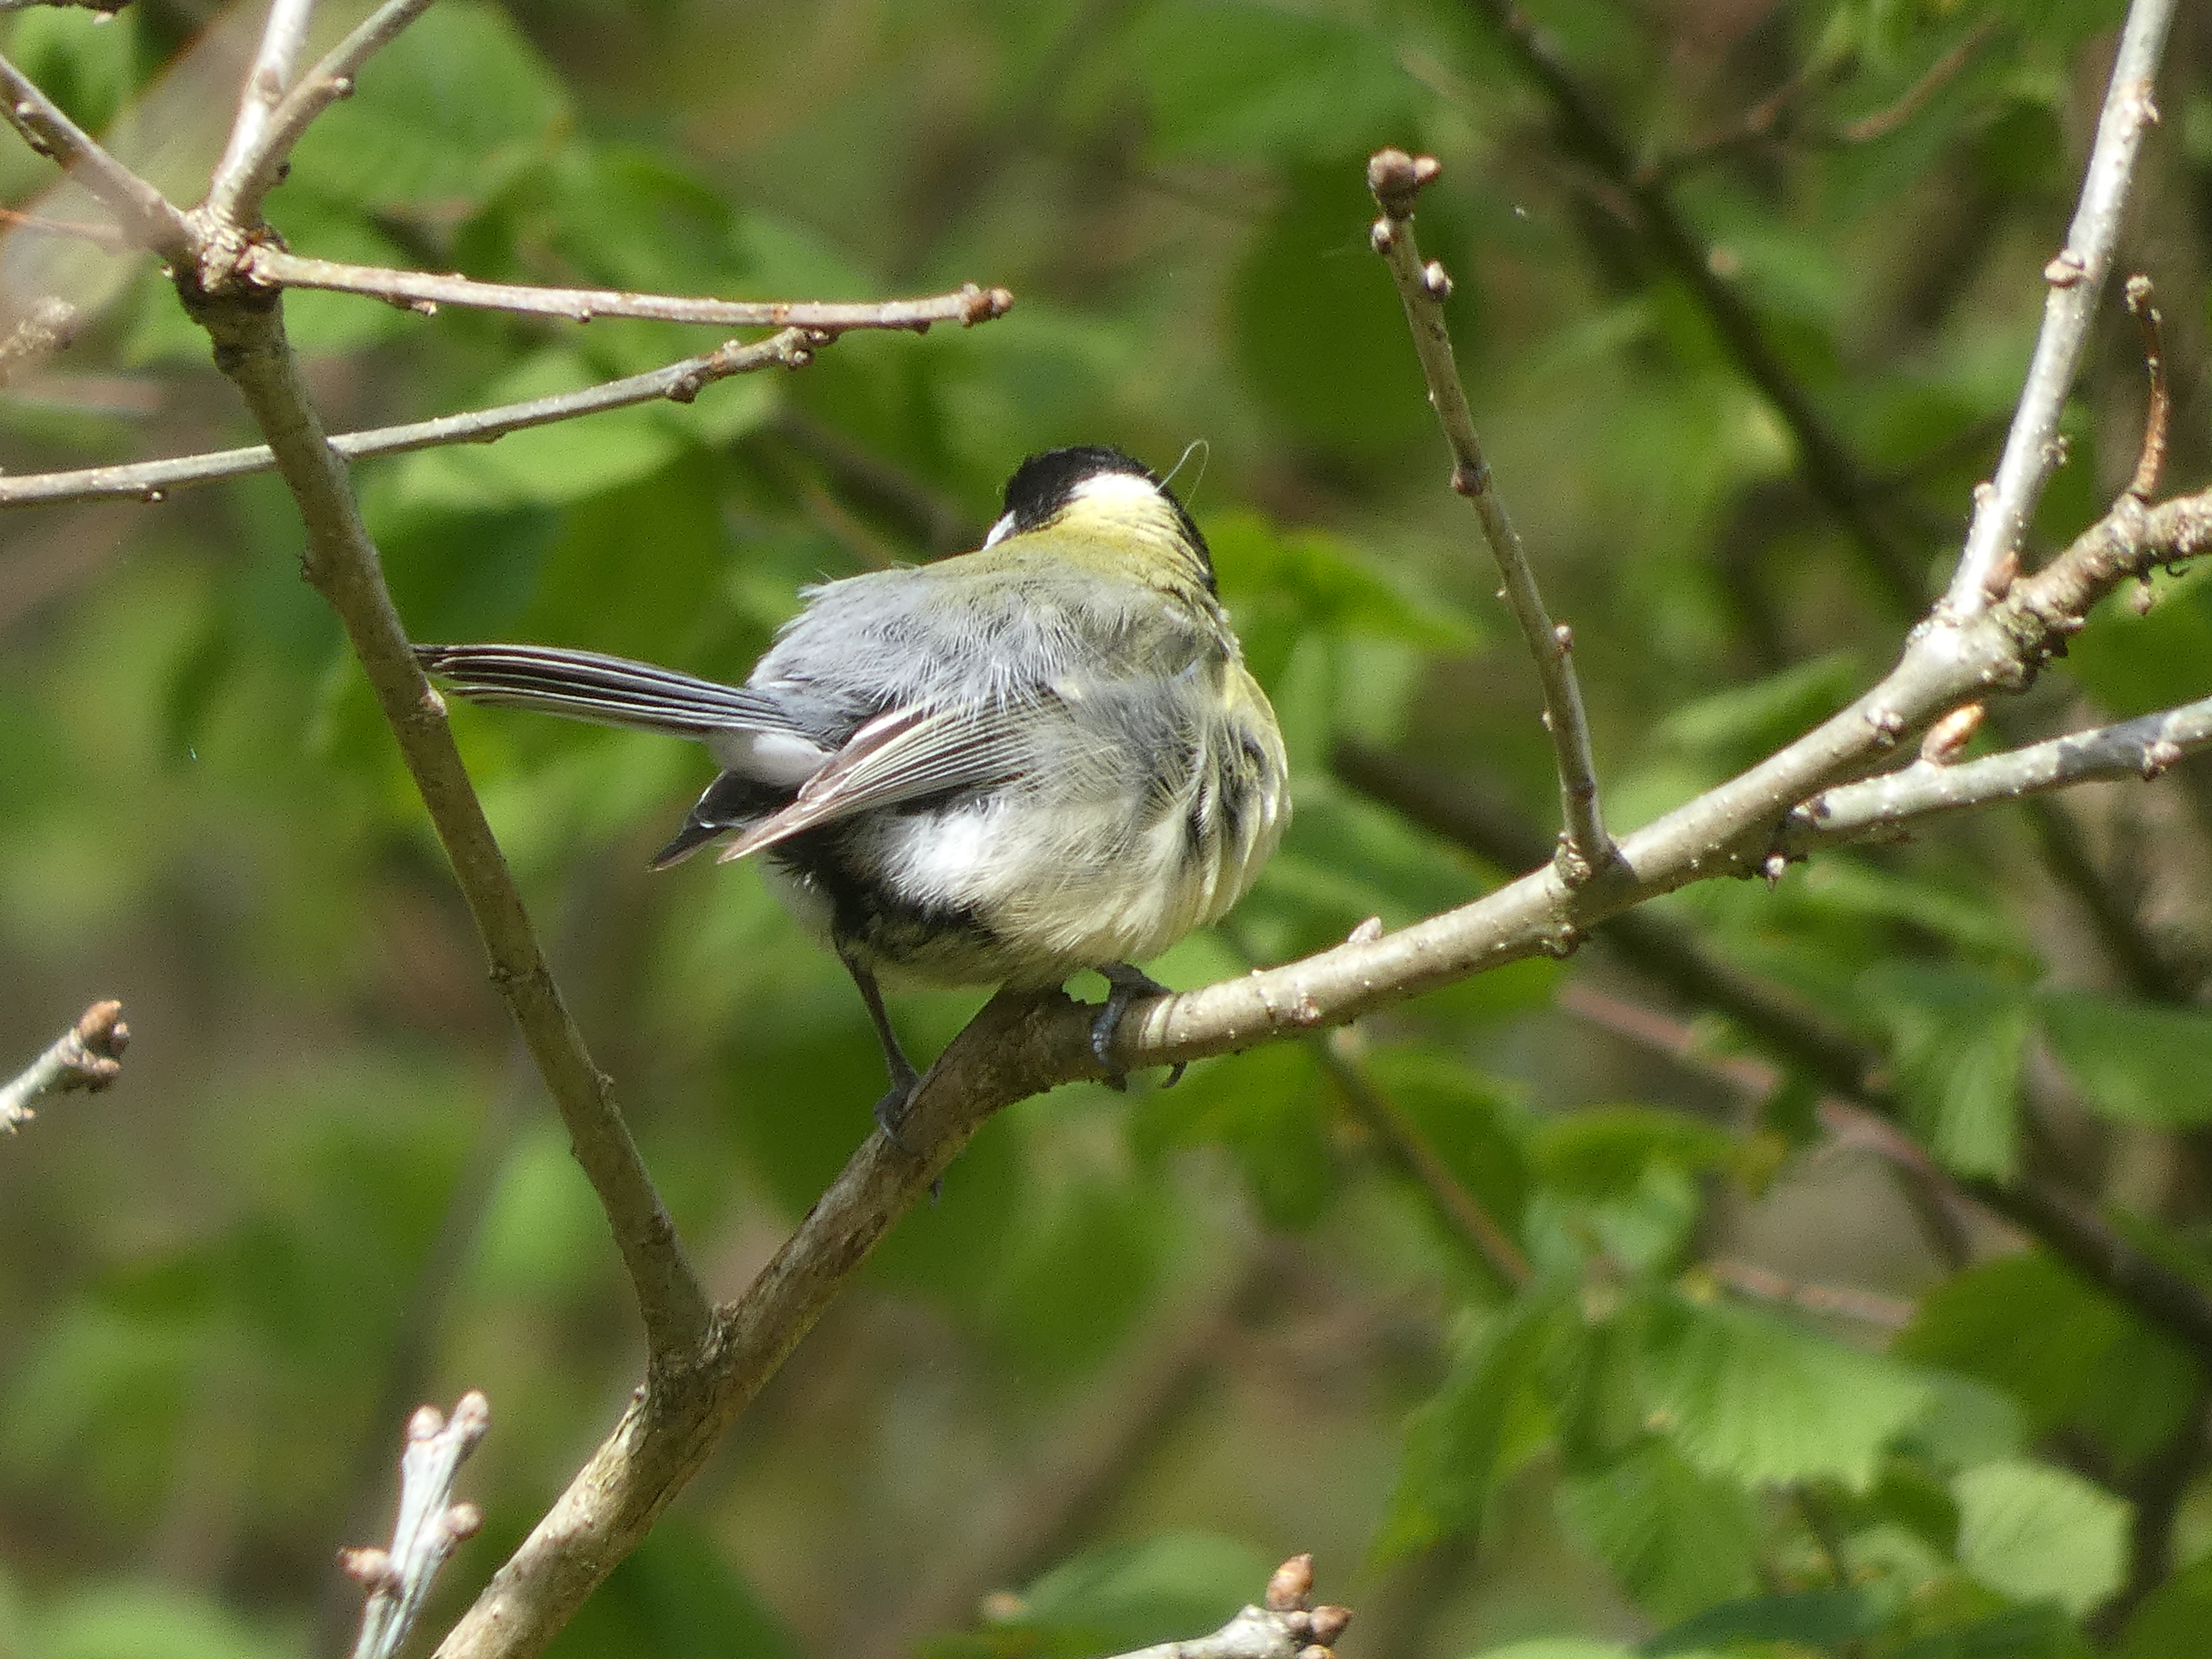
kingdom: Animalia
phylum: Chordata
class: Aves
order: Passeriformes
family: Paridae
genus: Parus
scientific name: Parus major
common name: Musvit
